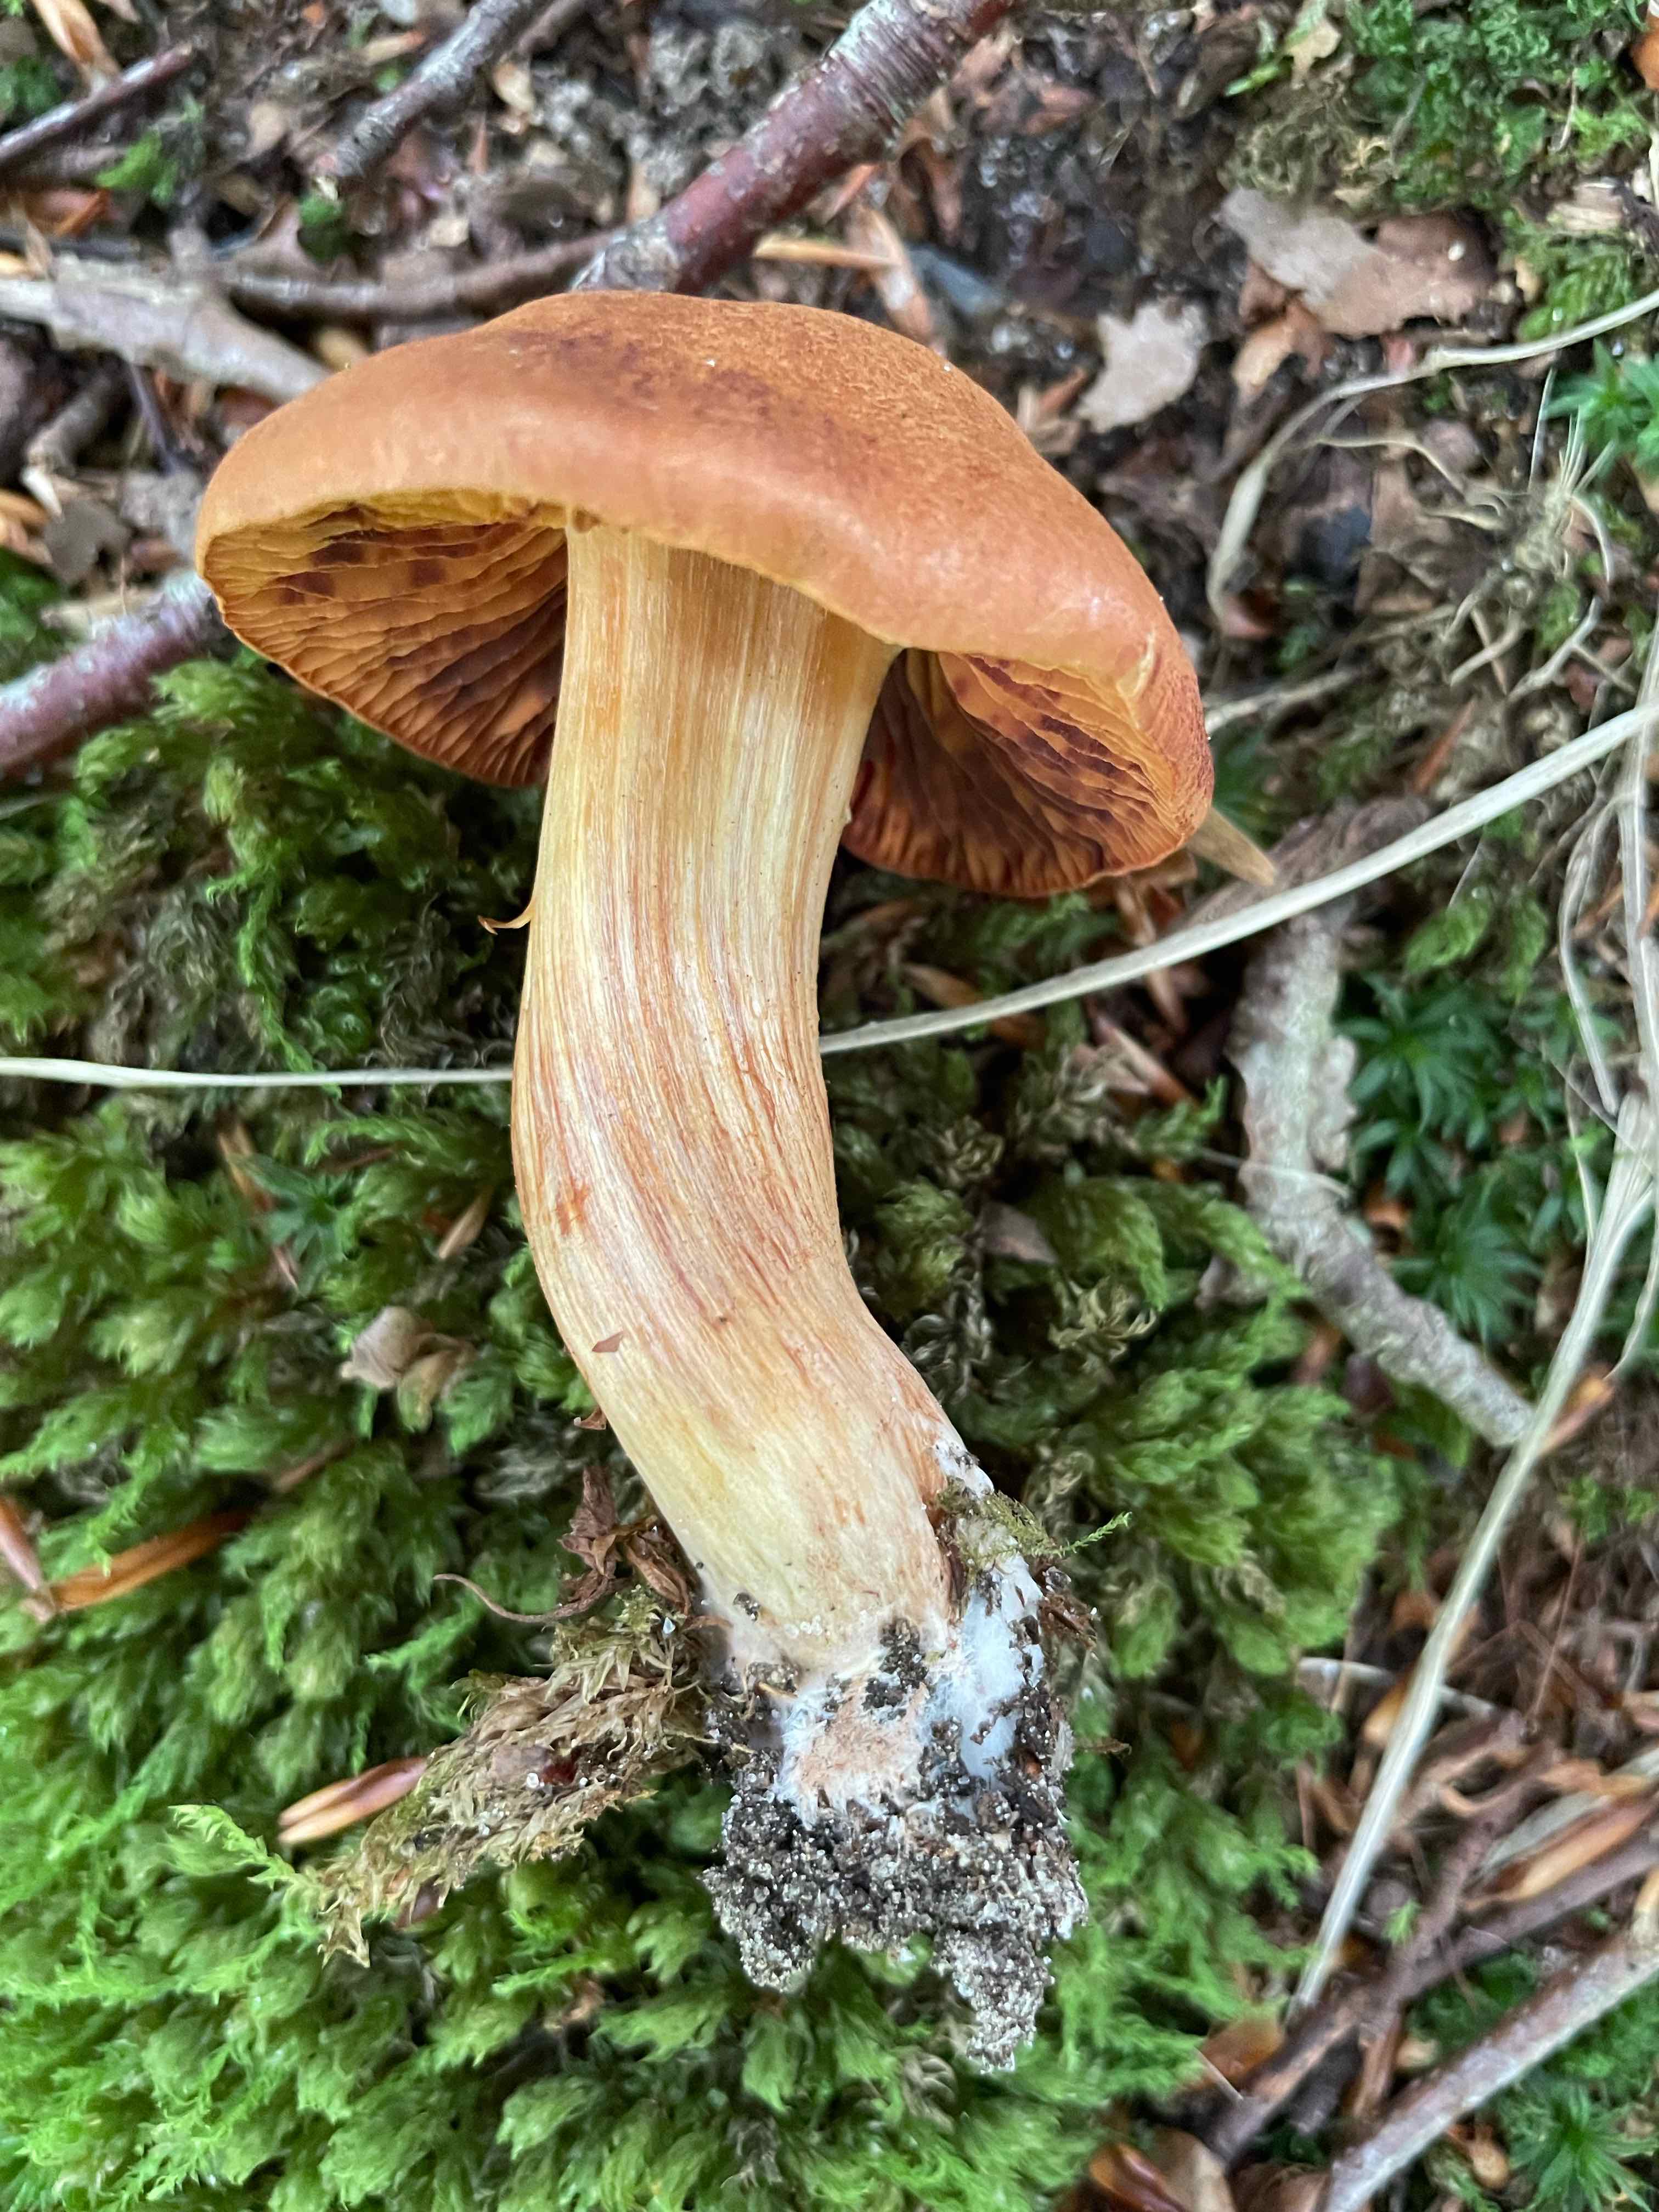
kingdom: Fungi
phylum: Basidiomycota
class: Agaricomycetes
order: Agaricales
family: Cortinariaceae
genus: Cortinarius
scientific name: Cortinarius orellanus
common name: hvælvet gift-slørhat
